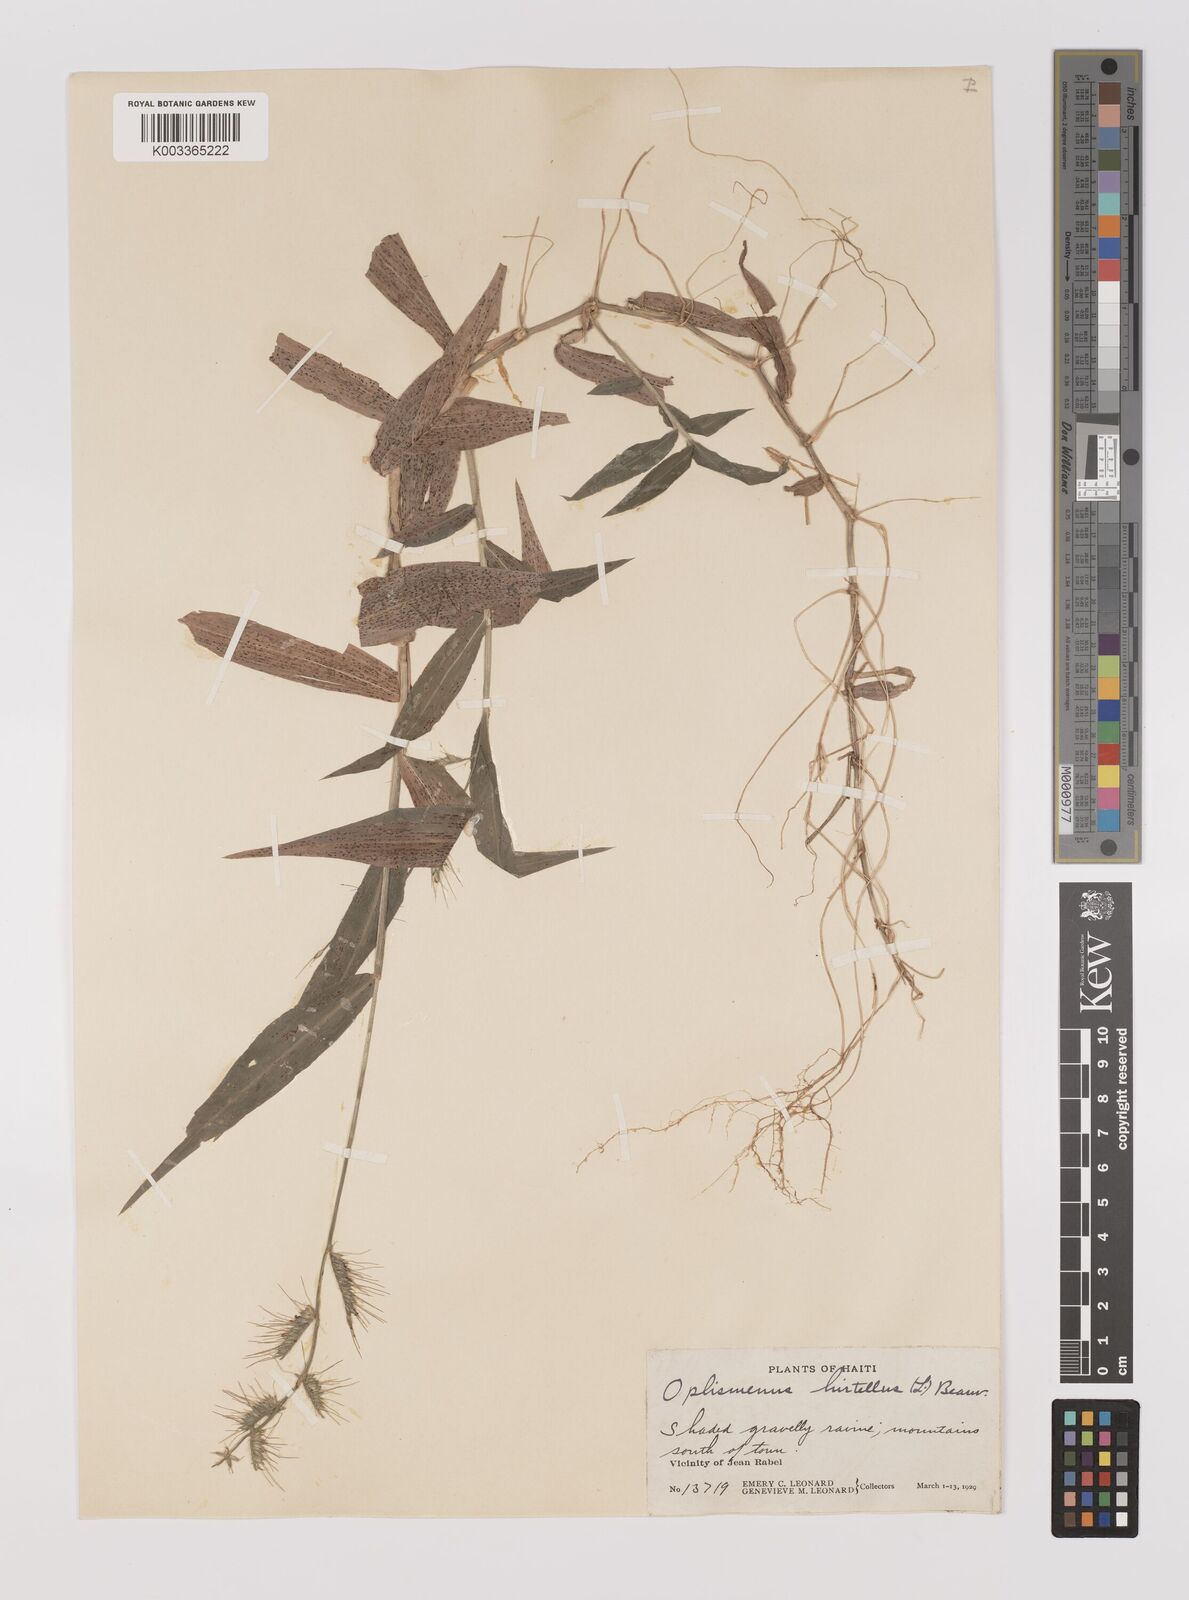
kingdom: Plantae
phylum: Tracheophyta
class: Liliopsida
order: Poales
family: Poaceae
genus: Oplismenus
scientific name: Oplismenus hirtellus
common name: Basketgrass
